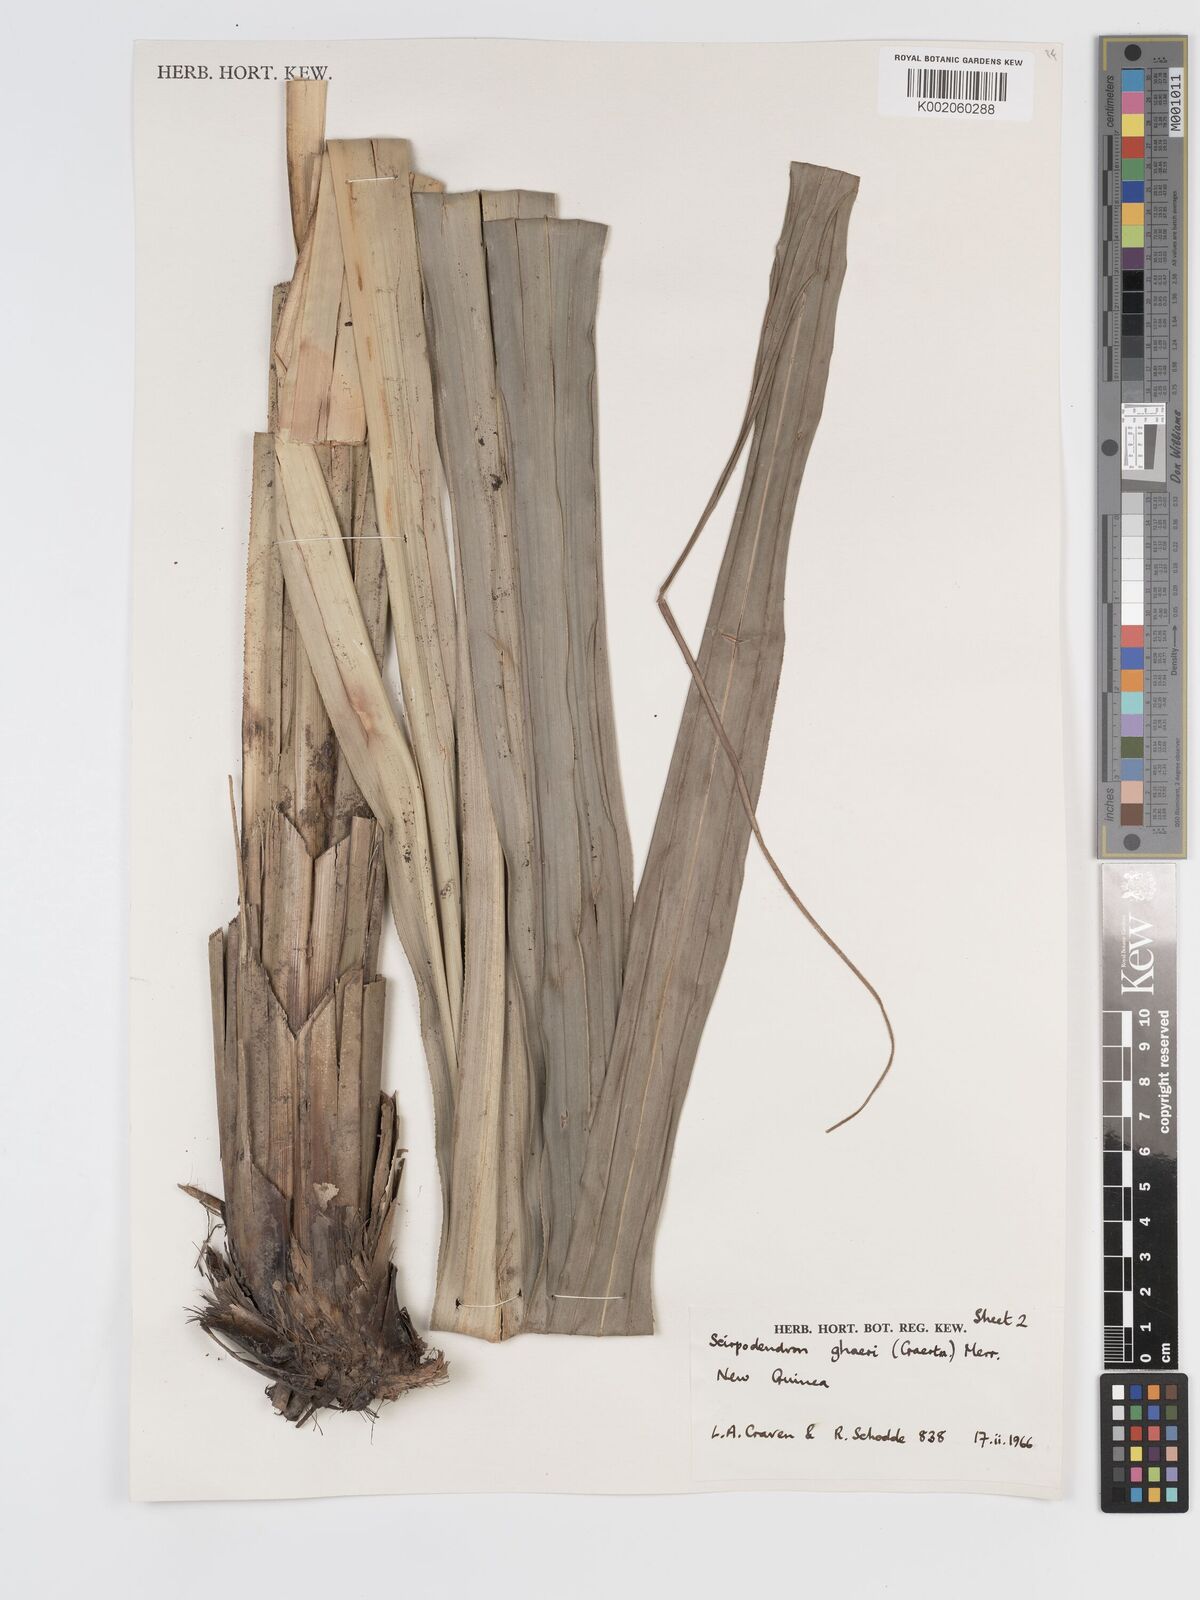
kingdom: Plantae
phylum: Tracheophyta
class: Liliopsida
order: Poales
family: Cyperaceae
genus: Scirpodendron
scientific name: Scirpodendron ghaeri
